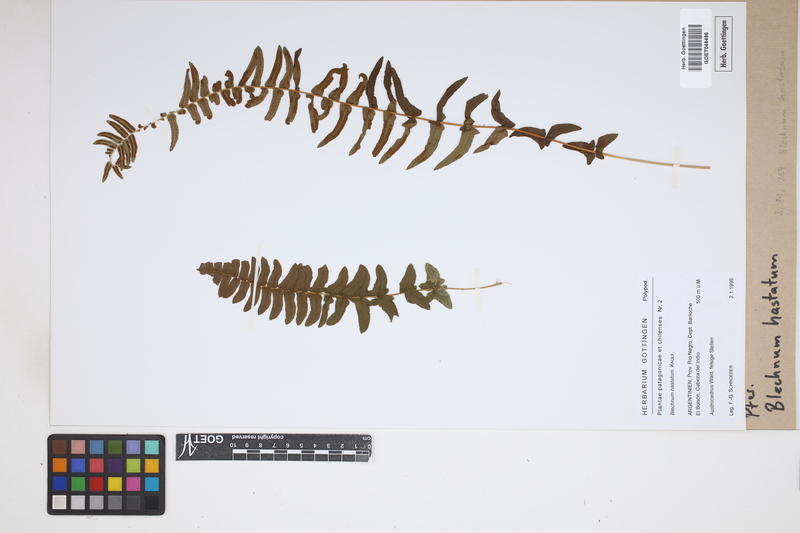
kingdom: Plantae
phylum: Tracheophyta
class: Polypodiopsida
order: Polypodiales
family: Blechnaceae
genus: Blechnum
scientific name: Blechnum hastatum
